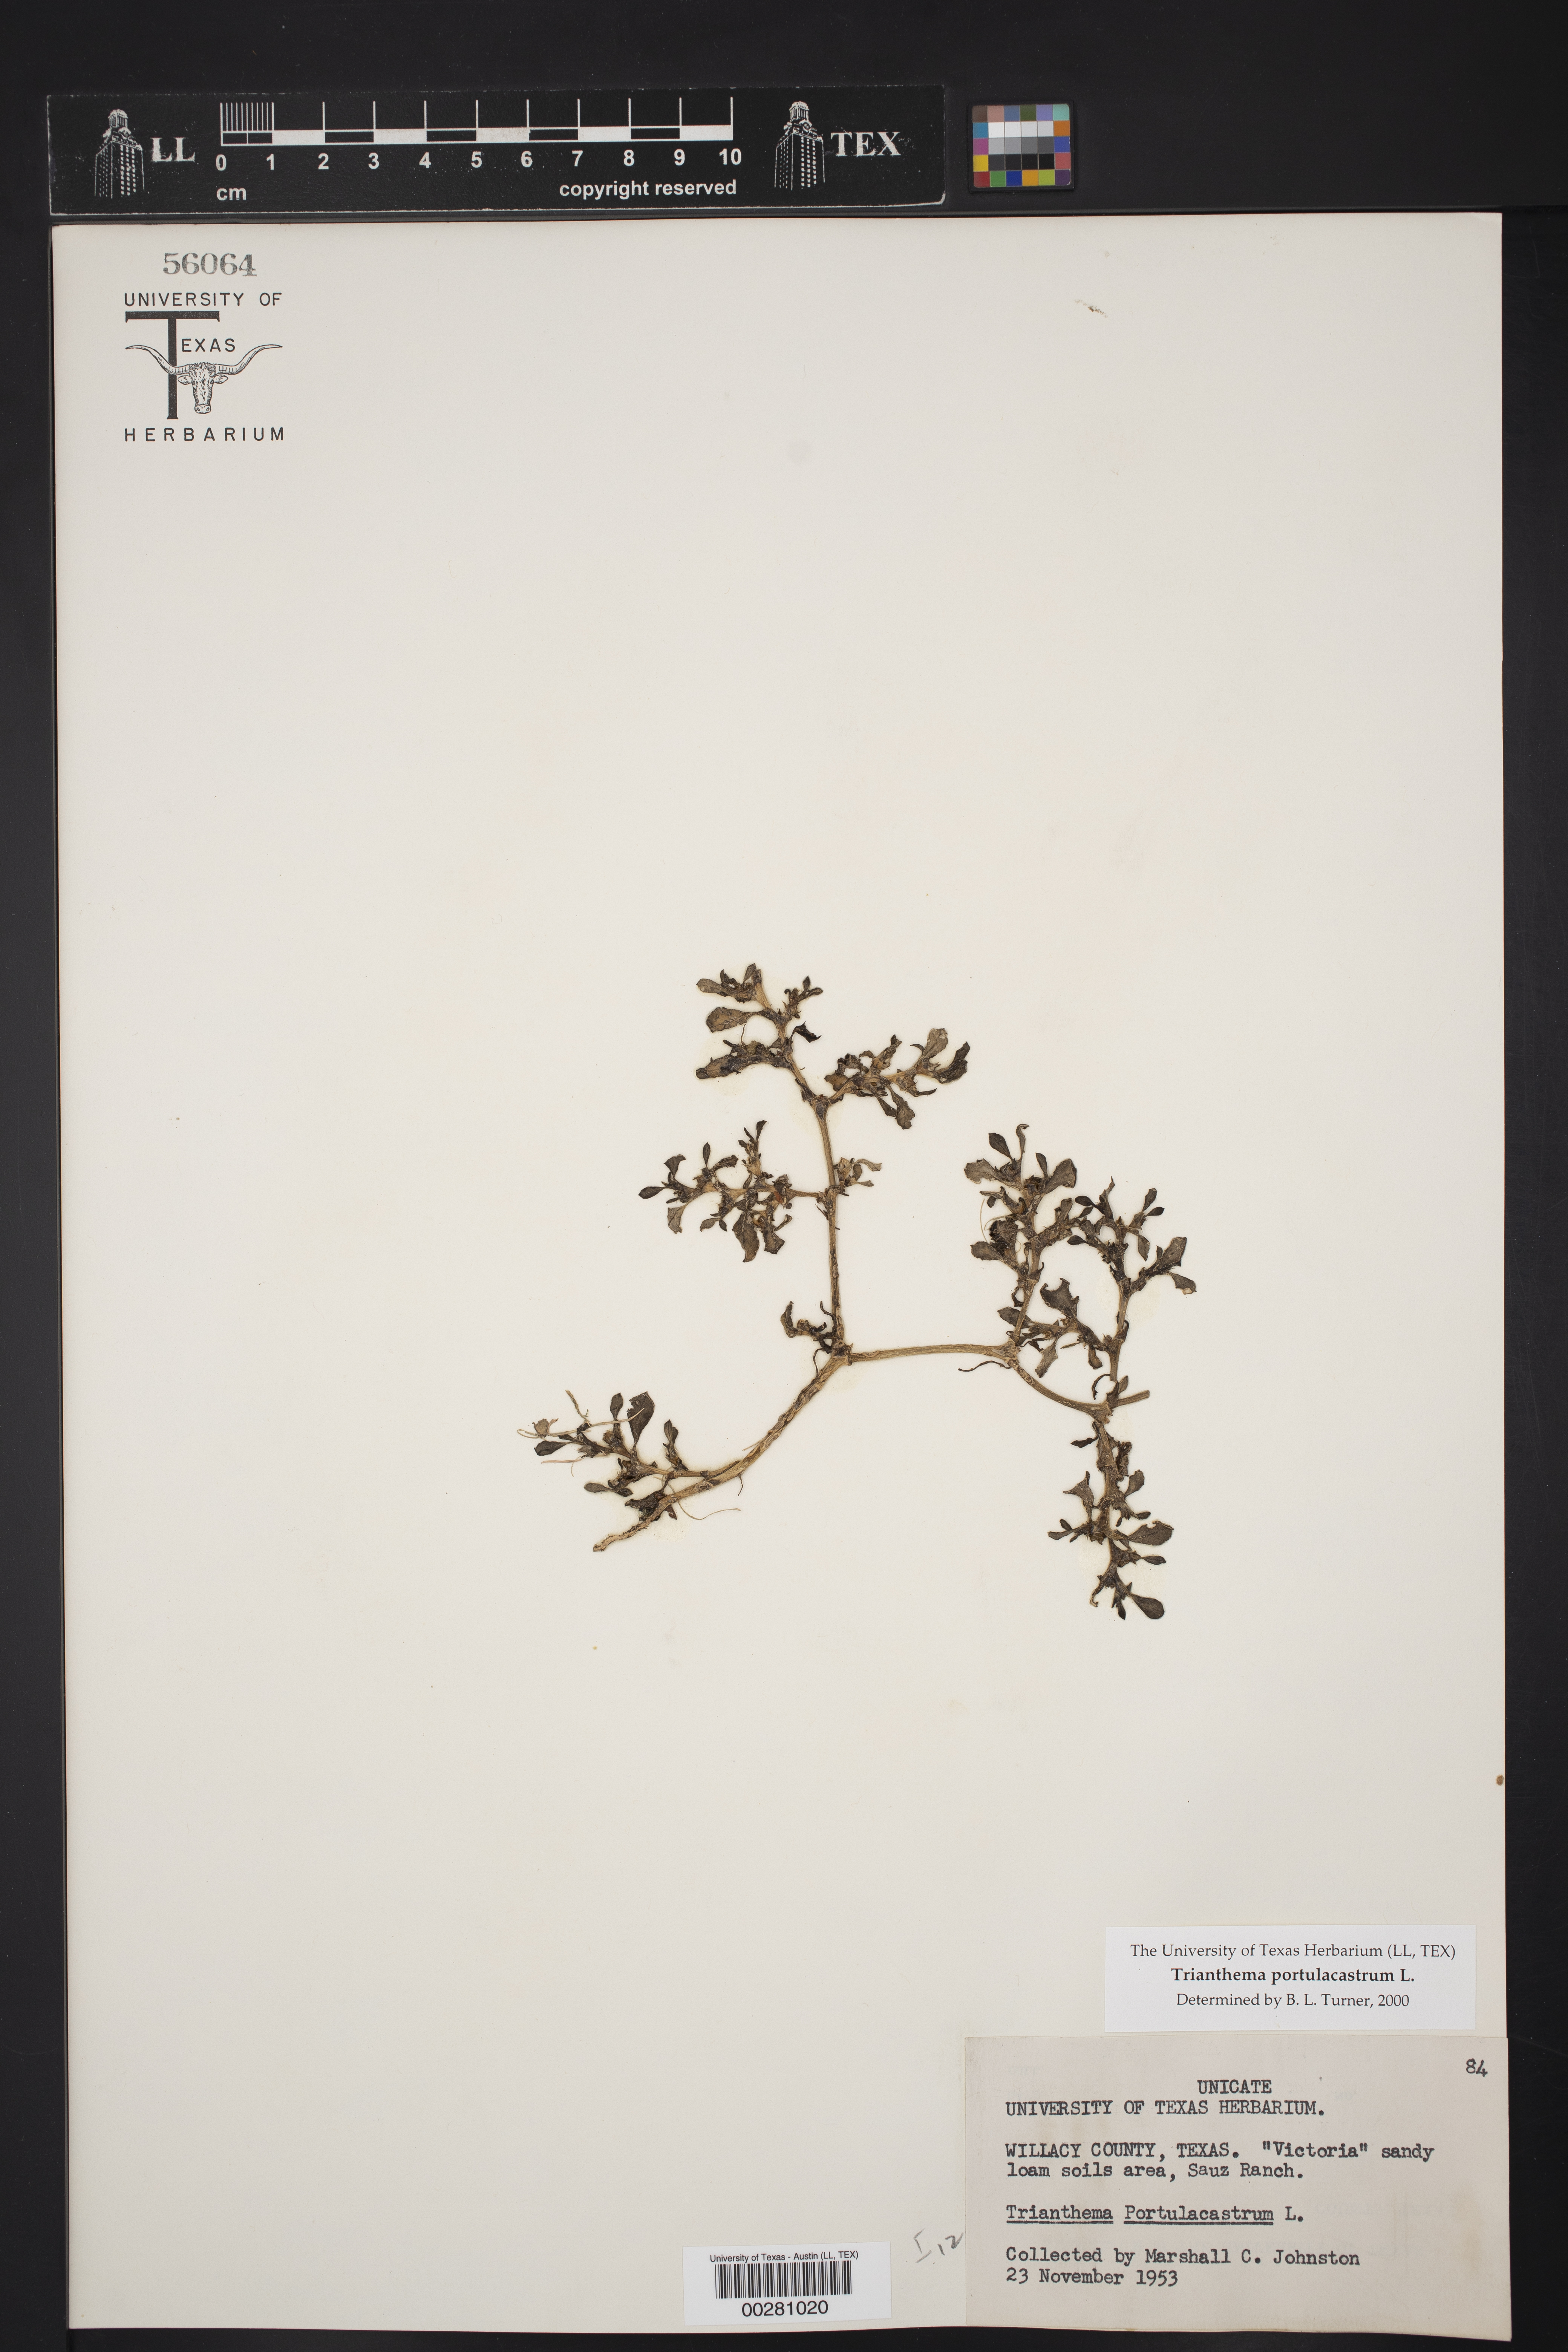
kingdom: Plantae
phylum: Tracheophyta
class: Magnoliopsida
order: Caryophyllales
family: Aizoaceae
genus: Trianthema
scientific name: Trianthema portulacastrum
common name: Desert horsepurslane
